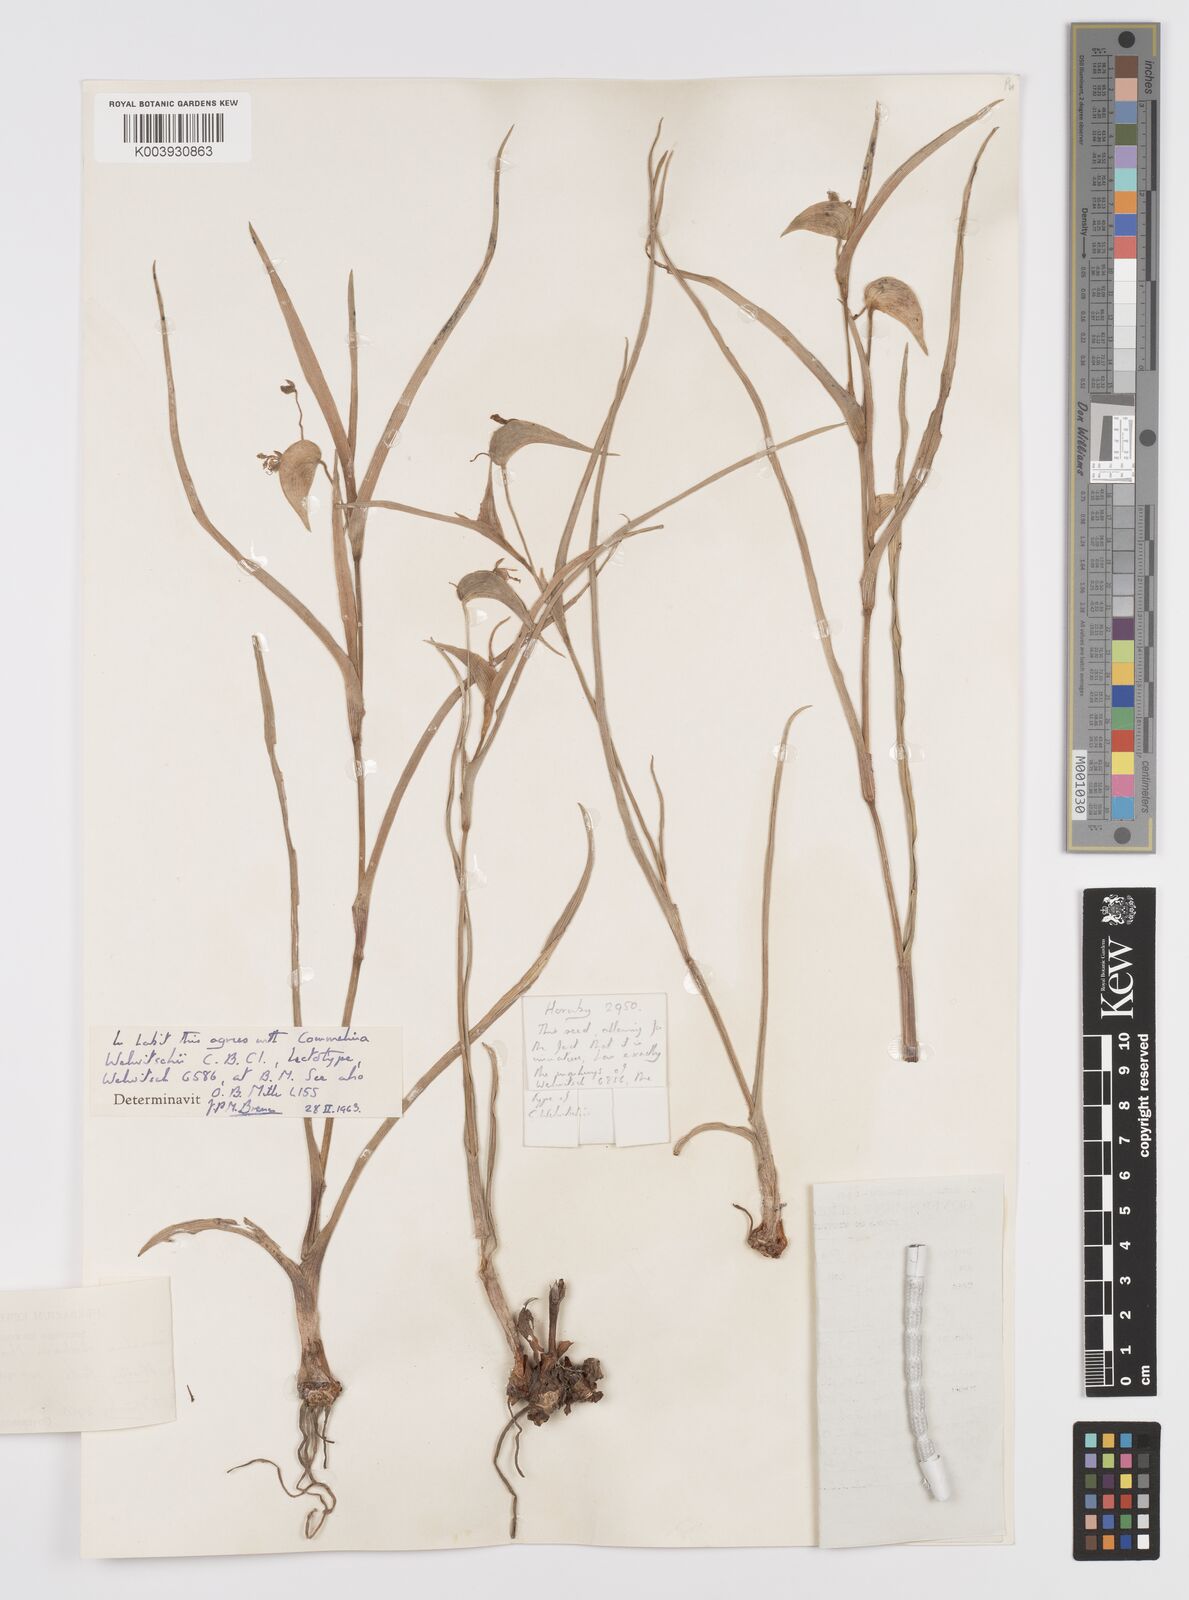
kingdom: Plantae
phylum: Tracheophyta
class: Liliopsida
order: Commelinales
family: Commelinaceae
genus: Commelina
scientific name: Commelina welwitschii
